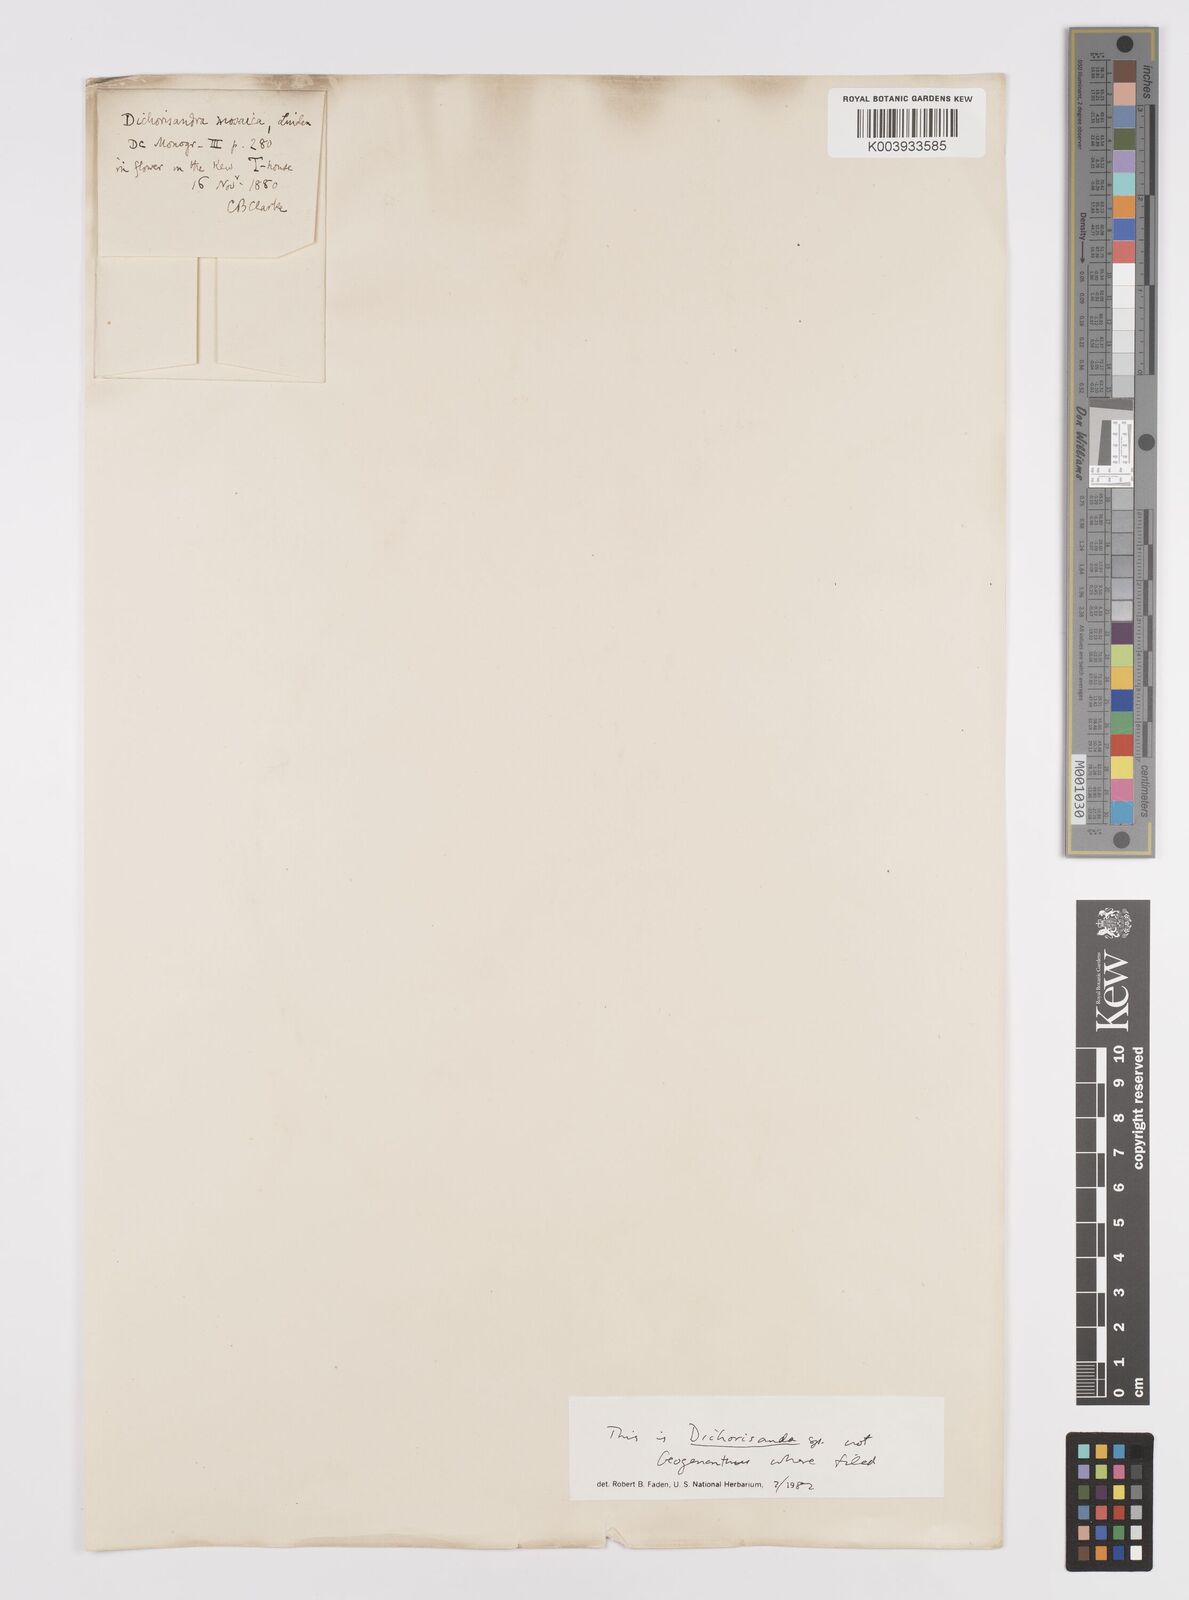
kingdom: Plantae
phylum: Tracheophyta
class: Liliopsida
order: Commelinales
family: Commelinaceae
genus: Dichorisandra
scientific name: Dichorisandra
